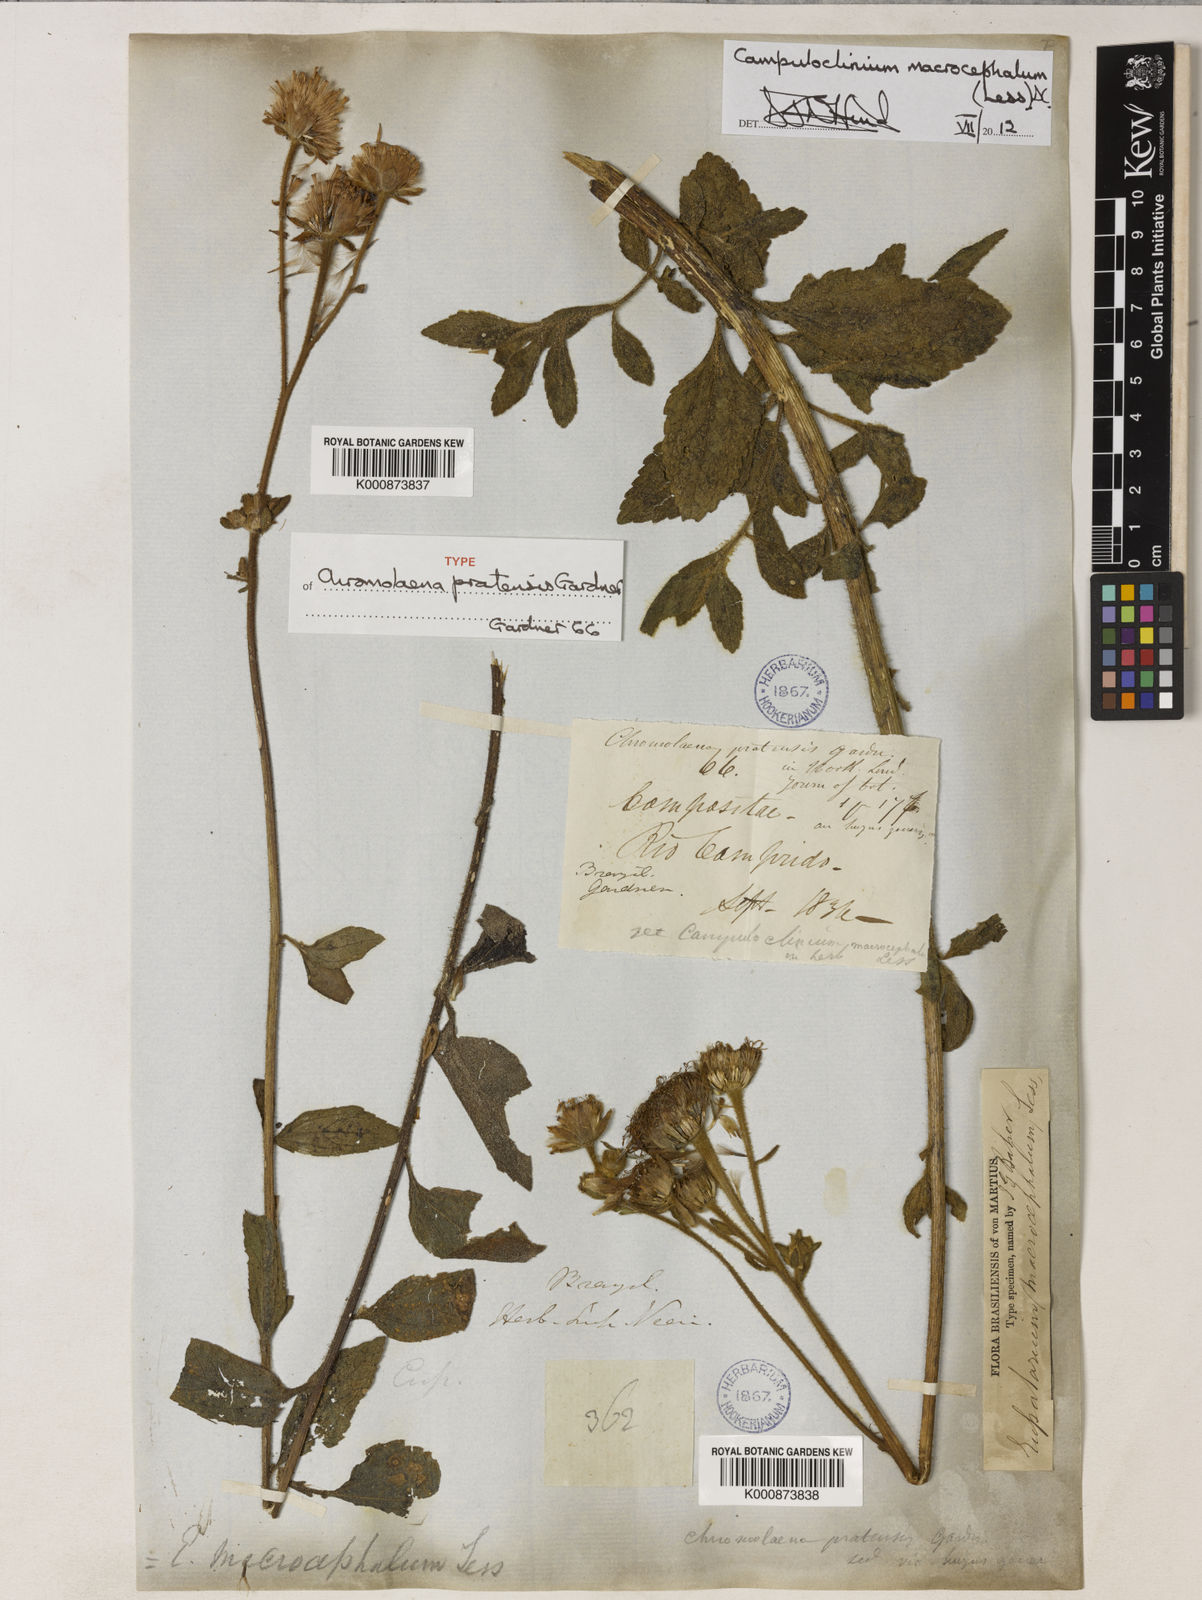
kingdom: Plantae
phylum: Tracheophyta
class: Magnoliopsida
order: Asterales
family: Asteraceae
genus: Campuloclinium
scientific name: Campuloclinium macrocephalum
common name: Pompomweed
